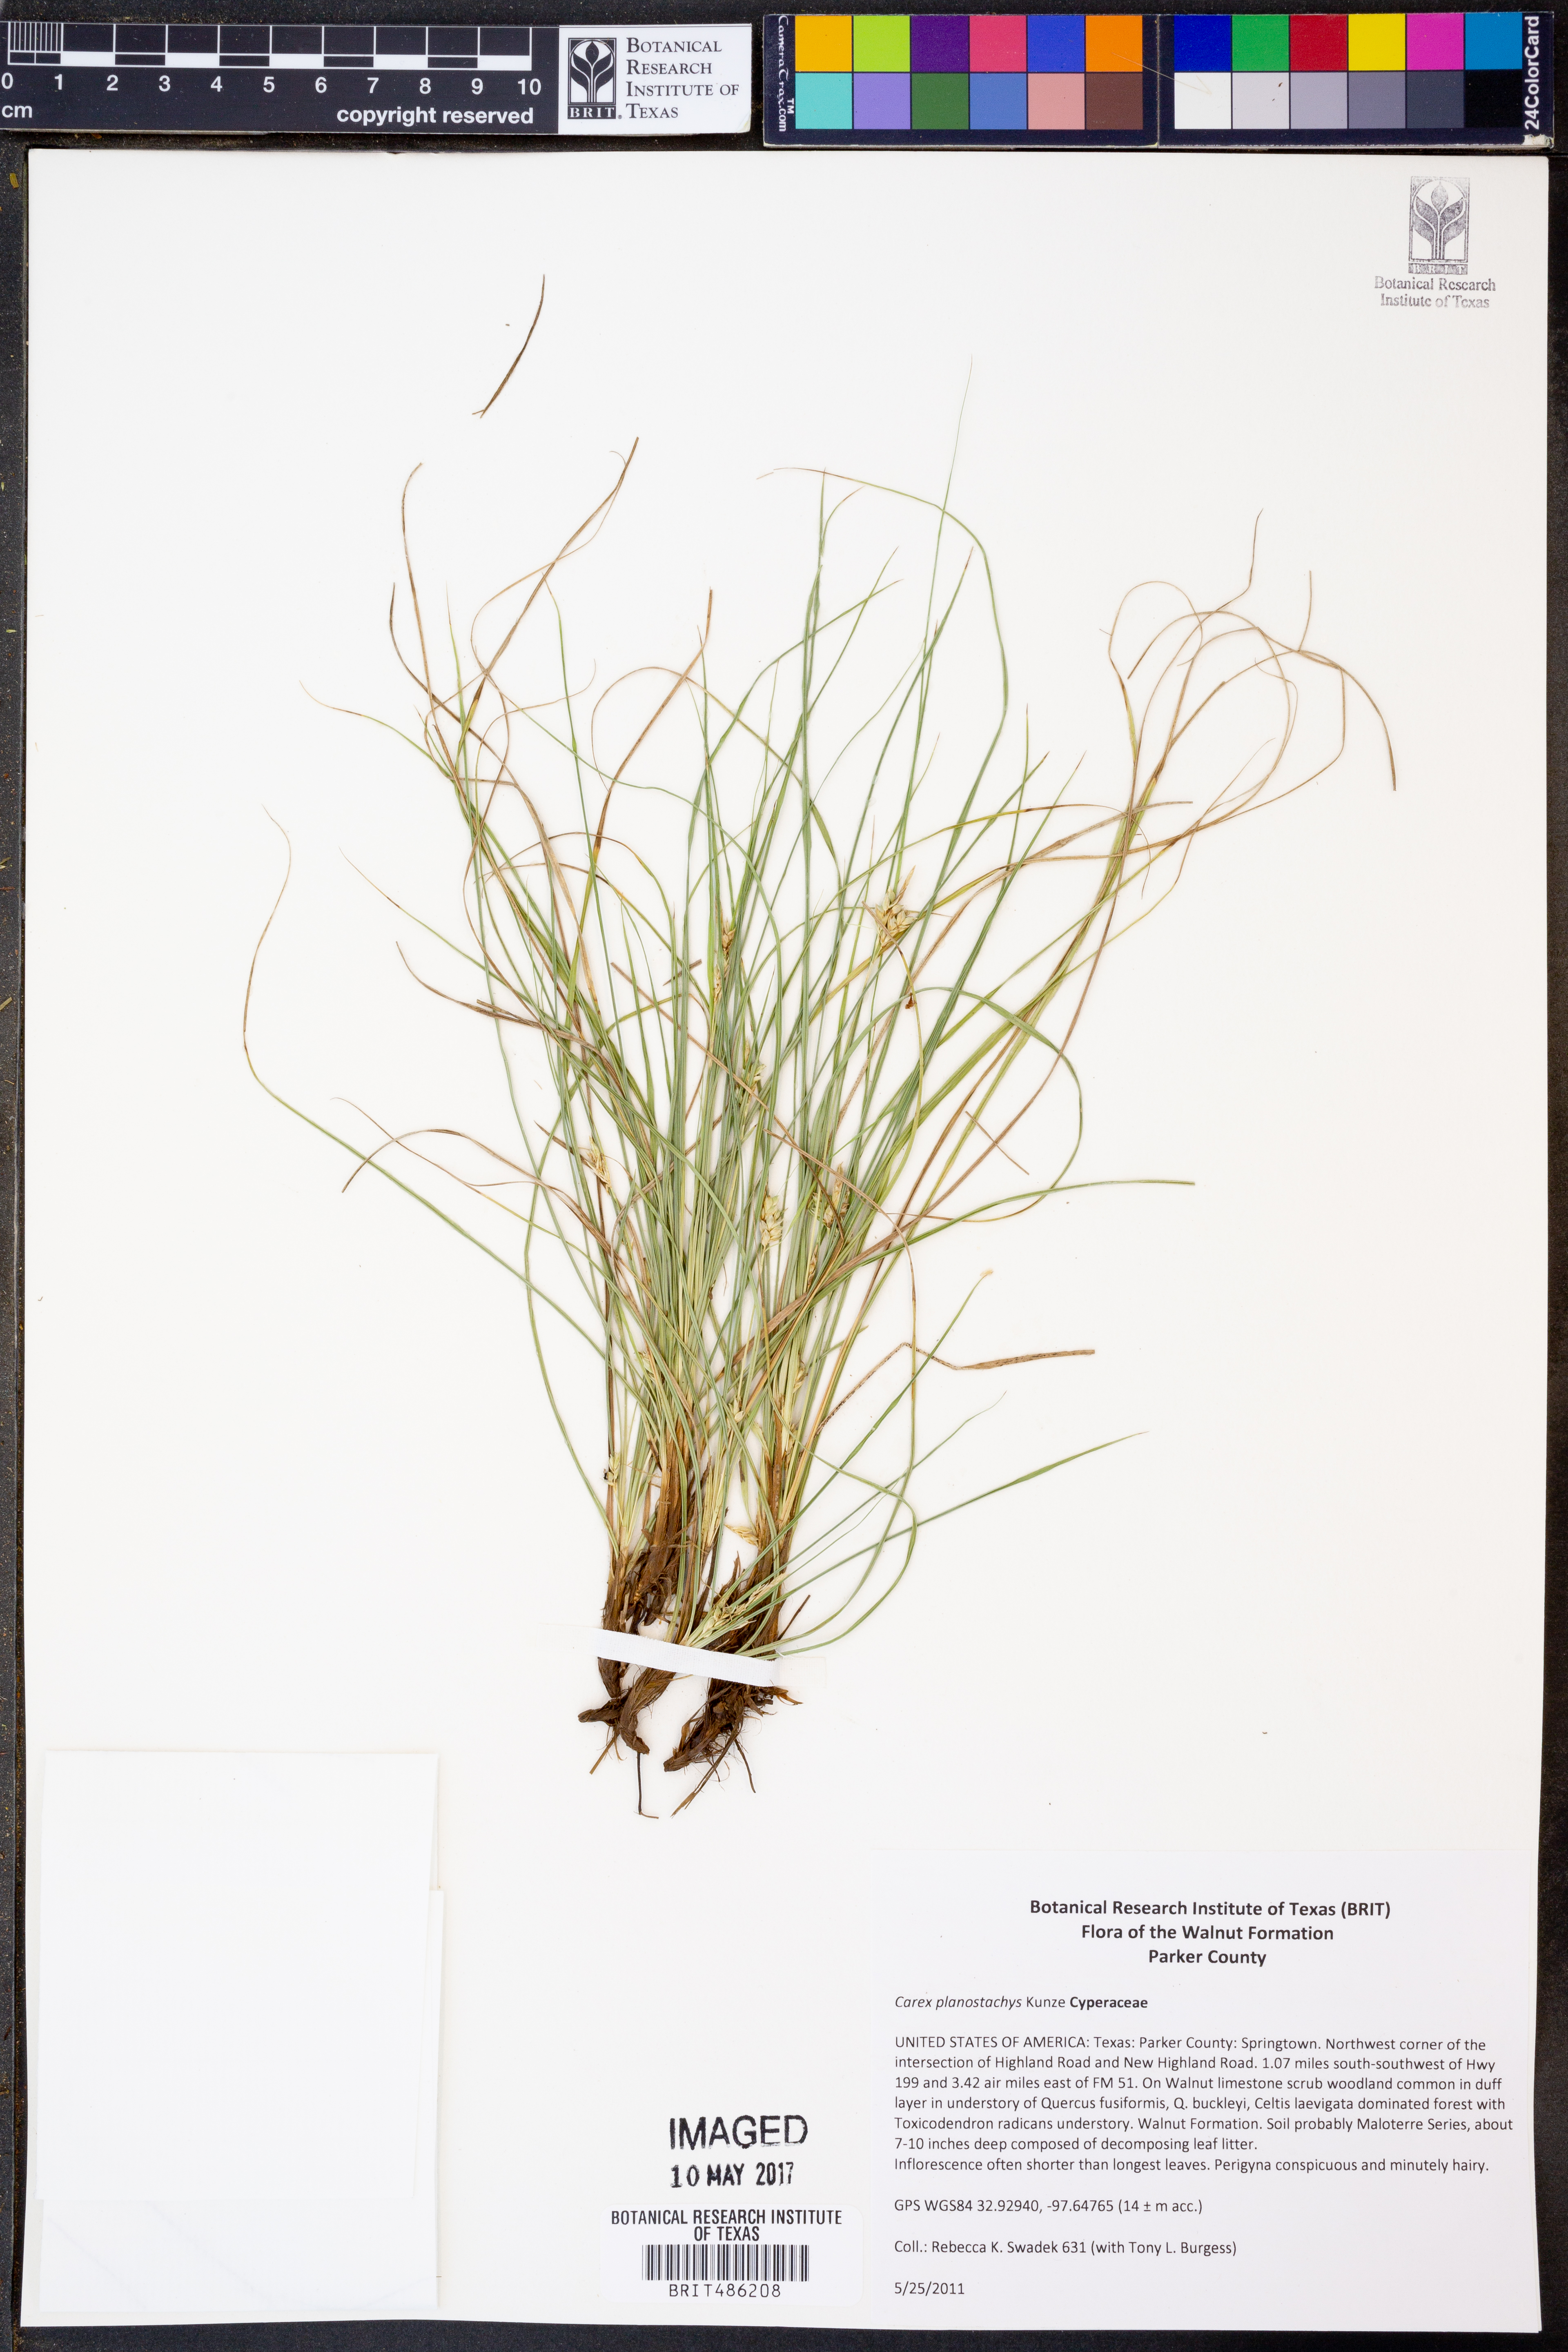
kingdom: Plantae
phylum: Tracheophyta
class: Liliopsida
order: Poales
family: Cyperaceae
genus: Carex
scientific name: Carex planostachys
